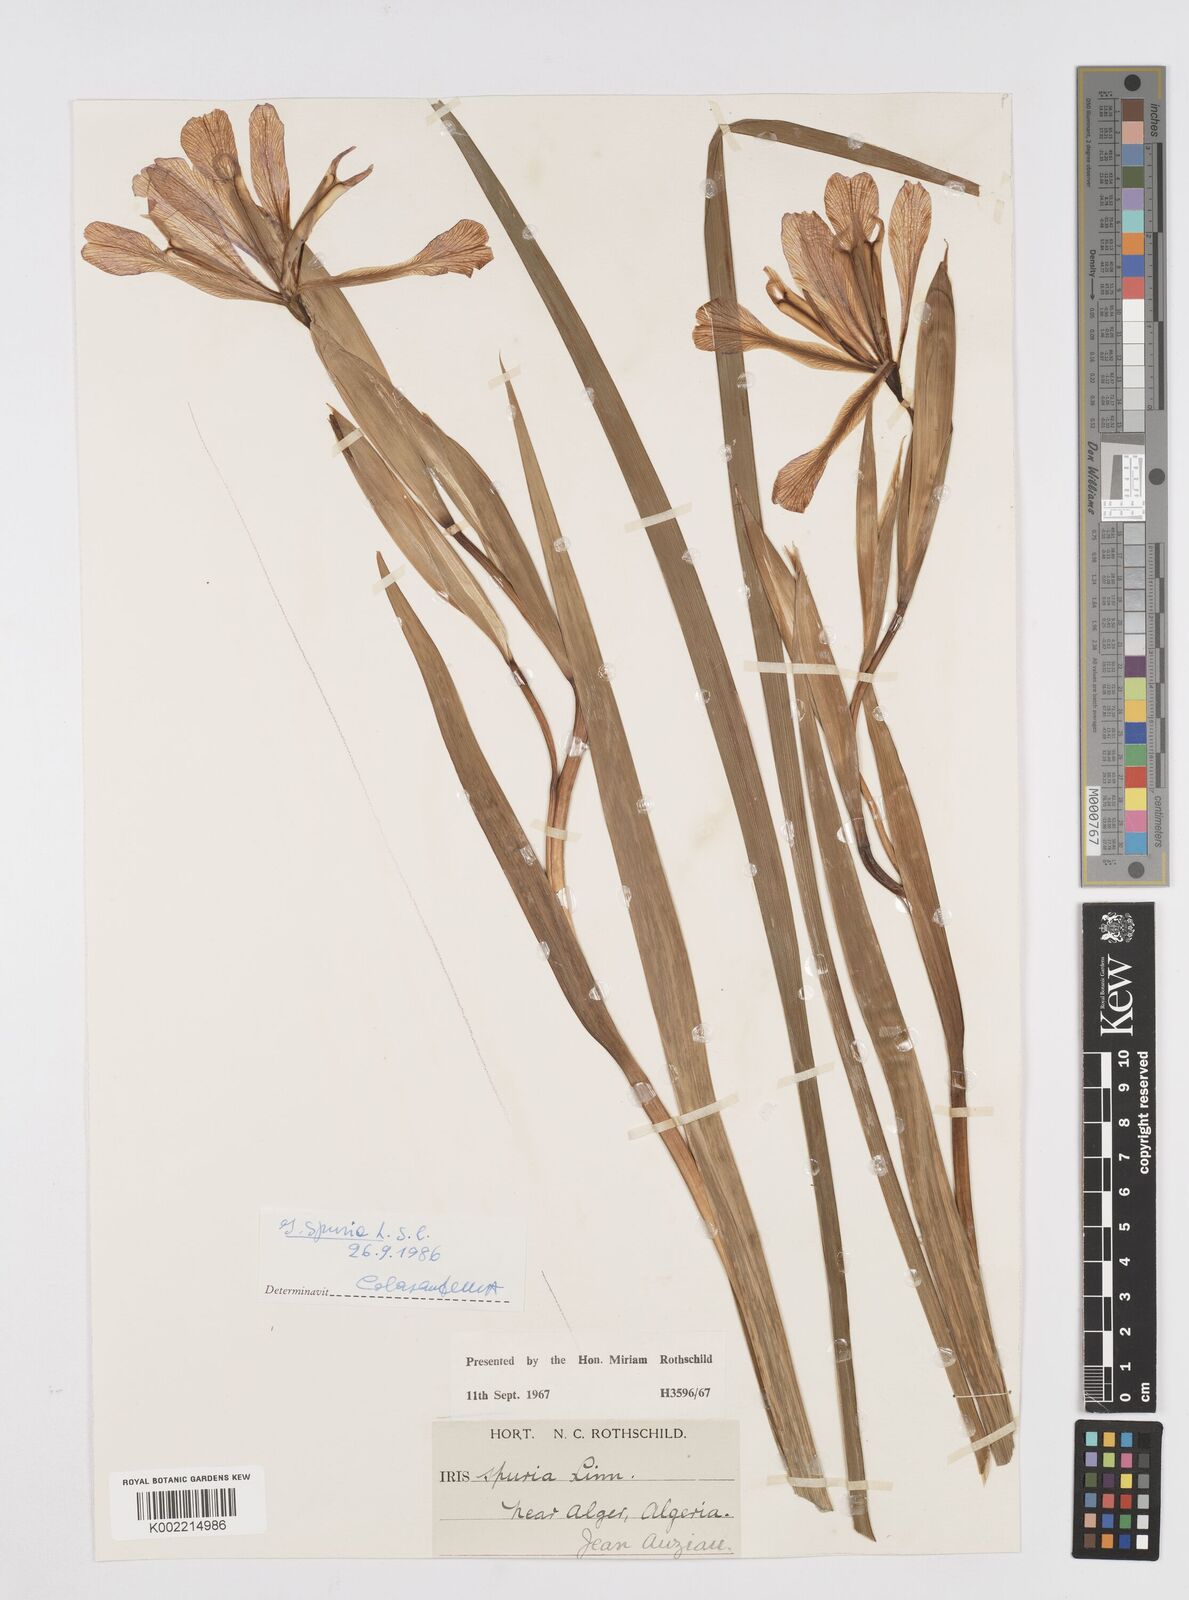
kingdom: Plantae
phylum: Tracheophyta
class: Liliopsida
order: Asparagales
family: Iridaceae
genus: Iris
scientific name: Iris spuria
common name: Blue iris
